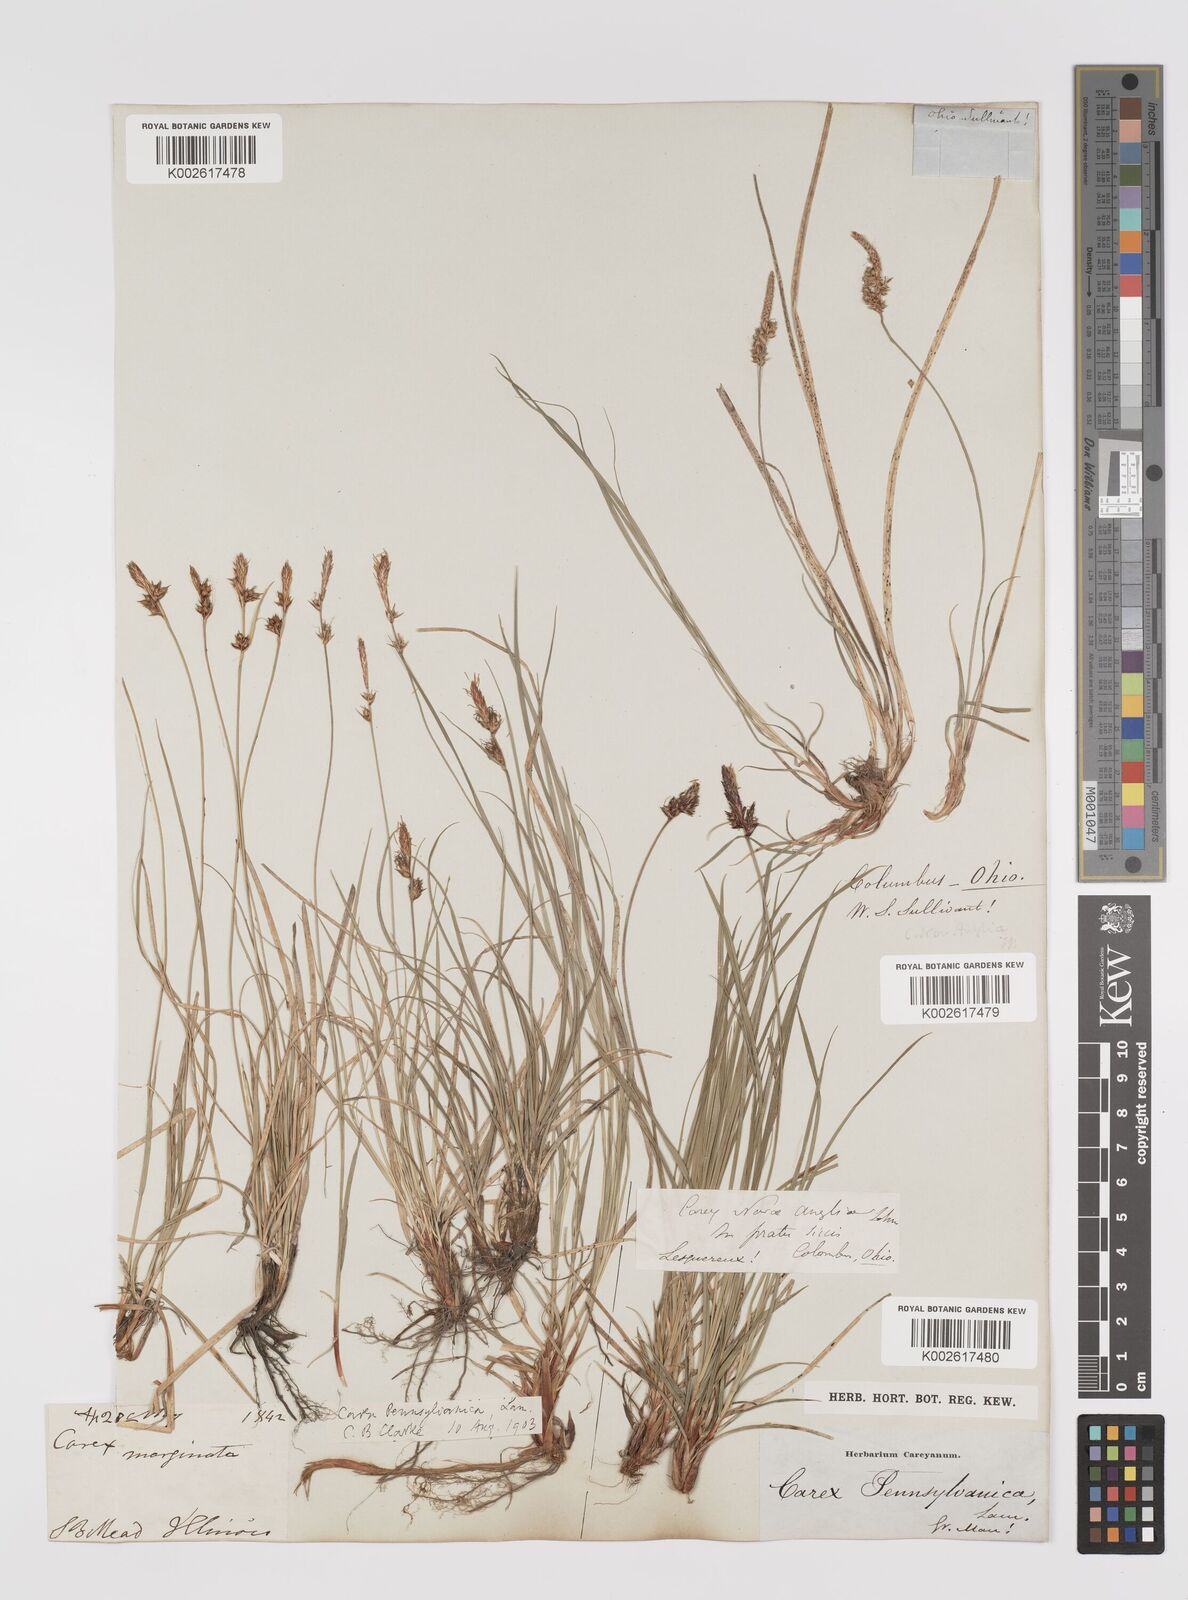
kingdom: Plantae
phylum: Tracheophyta
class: Liliopsida
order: Poales
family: Cyperaceae
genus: Carex
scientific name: Carex pensylvanica
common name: Common oak sedge
